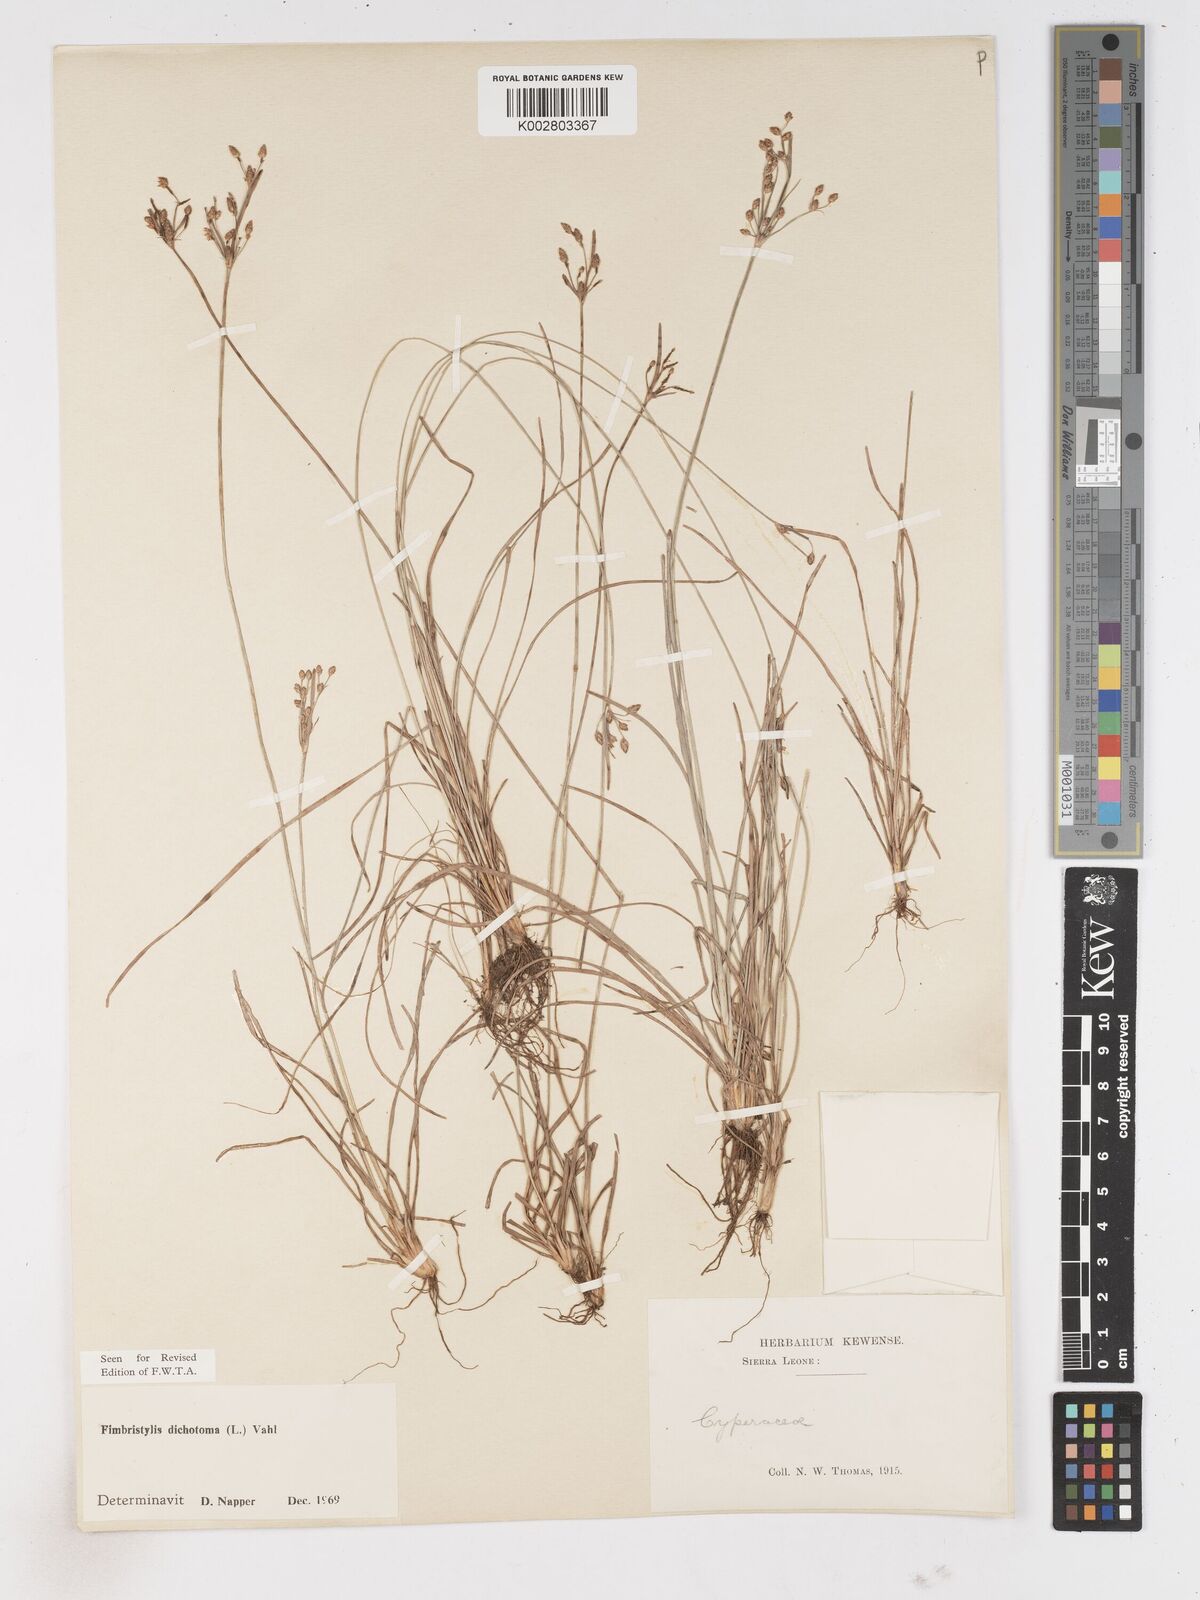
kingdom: Plantae
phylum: Tracheophyta
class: Liliopsida
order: Poales
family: Cyperaceae
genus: Fimbristylis
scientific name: Fimbristylis dichotoma
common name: Forked fimbry
